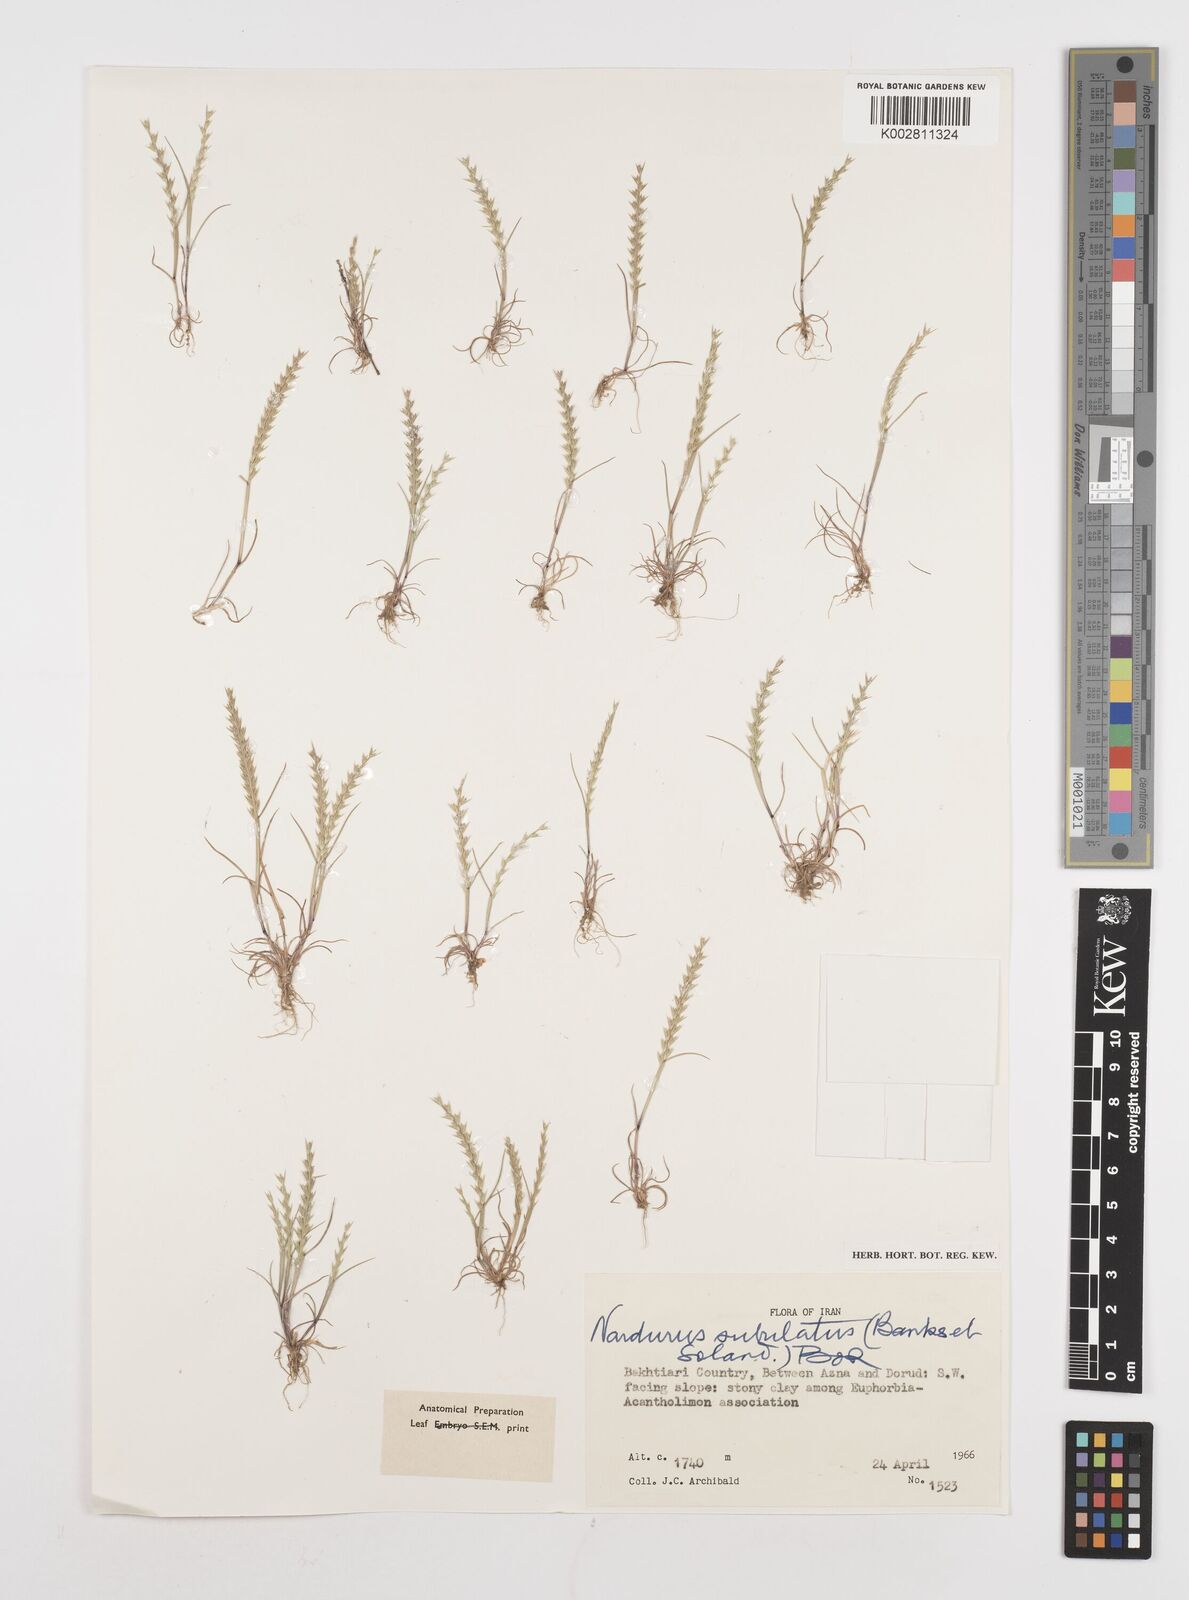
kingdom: Plantae
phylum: Tracheophyta
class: Liliopsida
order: Poales
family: Poaceae
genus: Festuca
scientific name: Festuca orientalis
